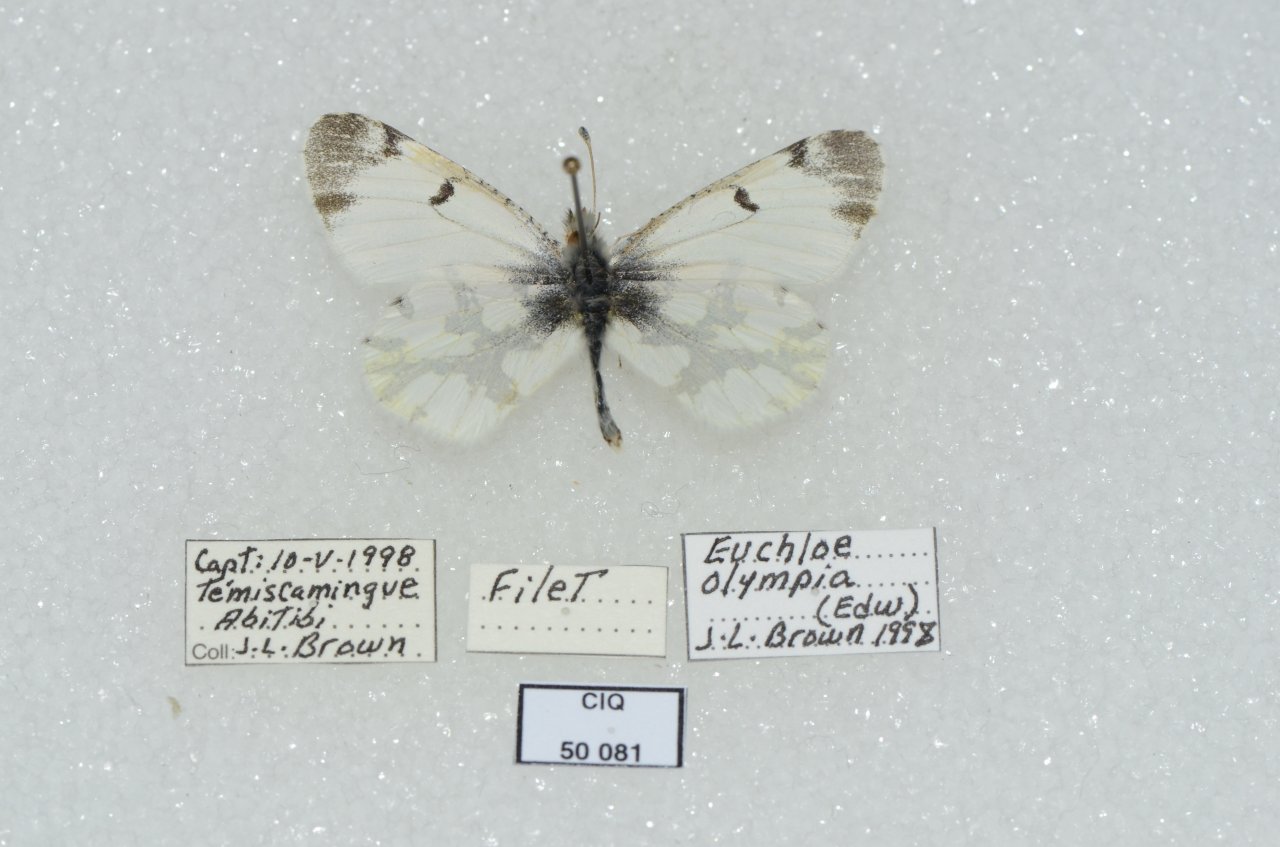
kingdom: Animalia
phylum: Arthropoda
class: Insecta
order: Lepidoptera
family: Pieridae
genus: Euchloe
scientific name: Euchloe olympia
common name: Olympia Marble
